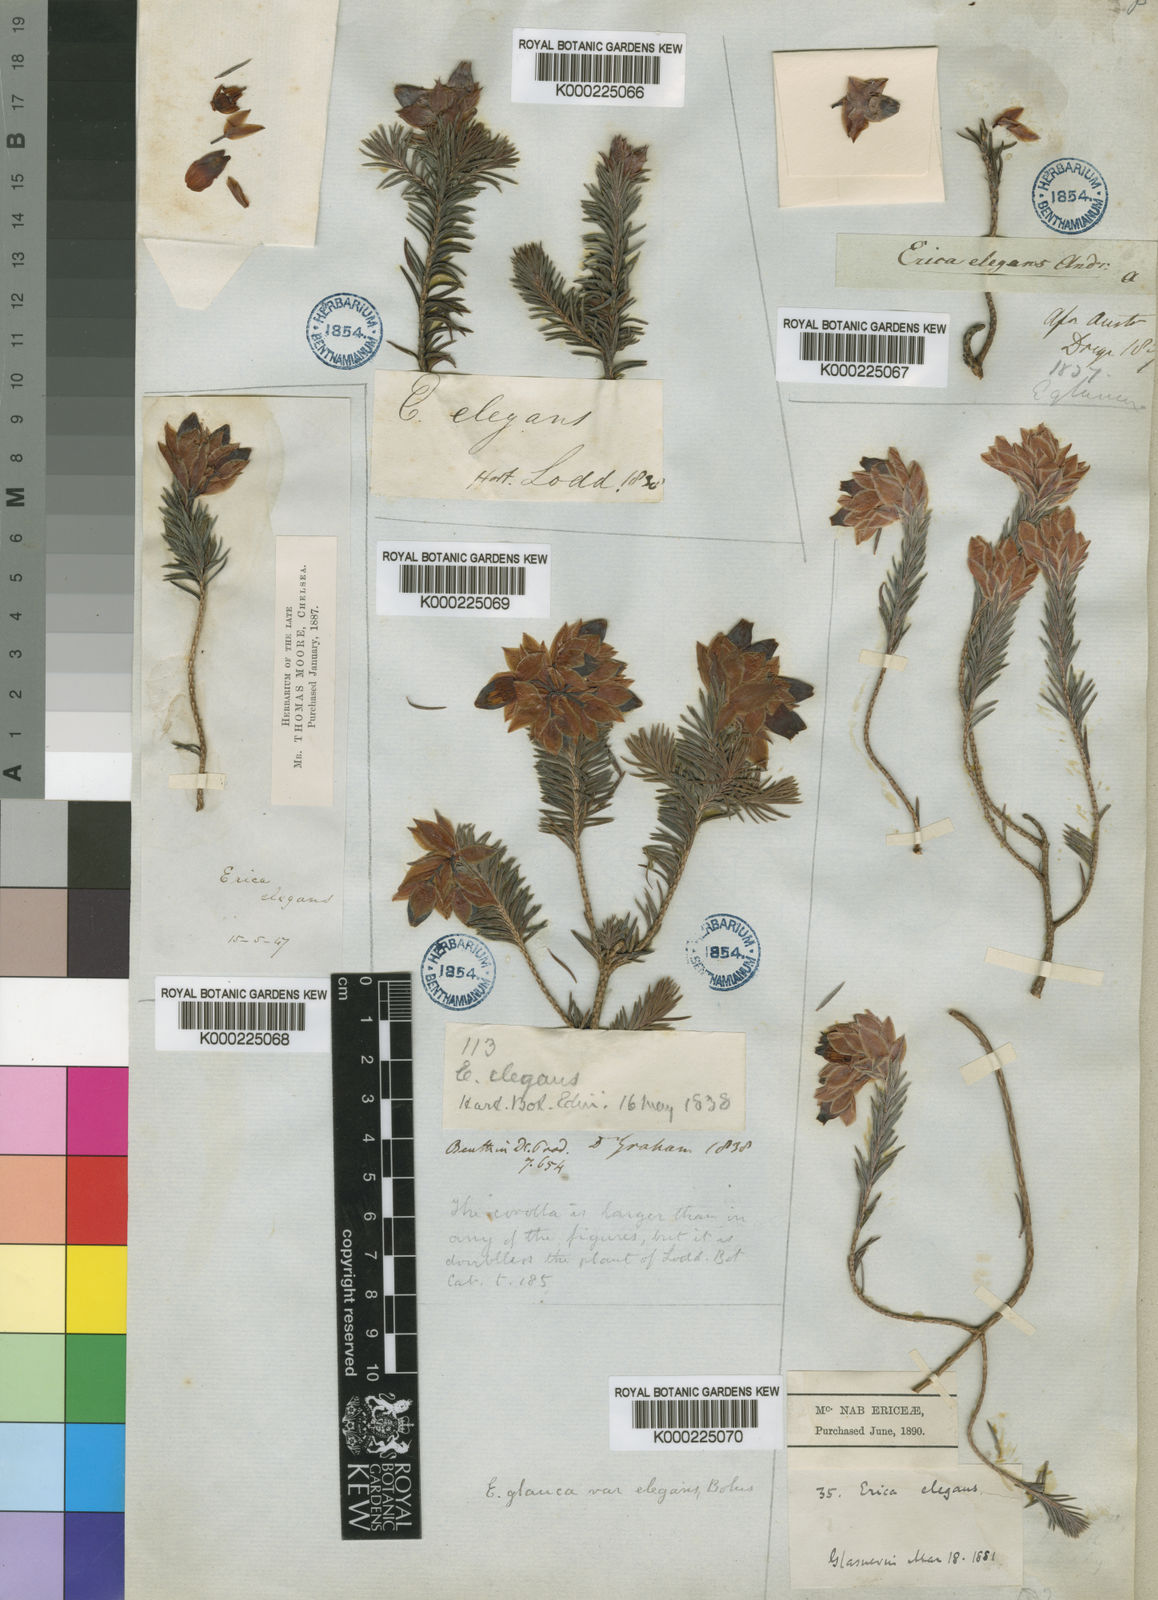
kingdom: Plantae
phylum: Tracheophyta
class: Magnoliopsida
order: Ericales
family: Ericaceae
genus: Erica
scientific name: Erica glauca
